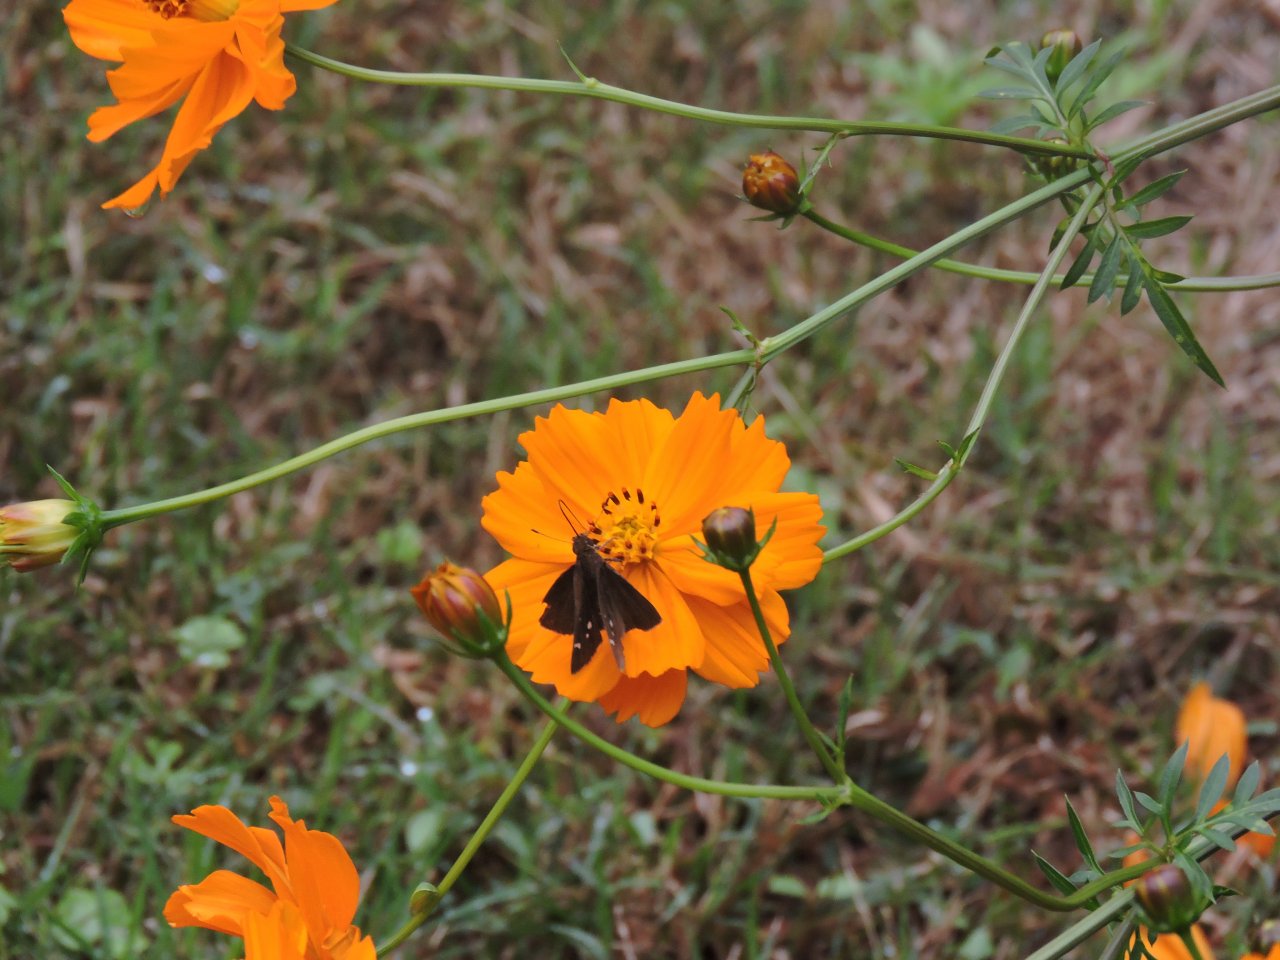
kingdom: Animalia
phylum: Arthropoda
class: Insecta
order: Lepidoptera
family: Hesperiidae
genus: Panoquina
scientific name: Panoquina ocola
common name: Ocola Skipper
